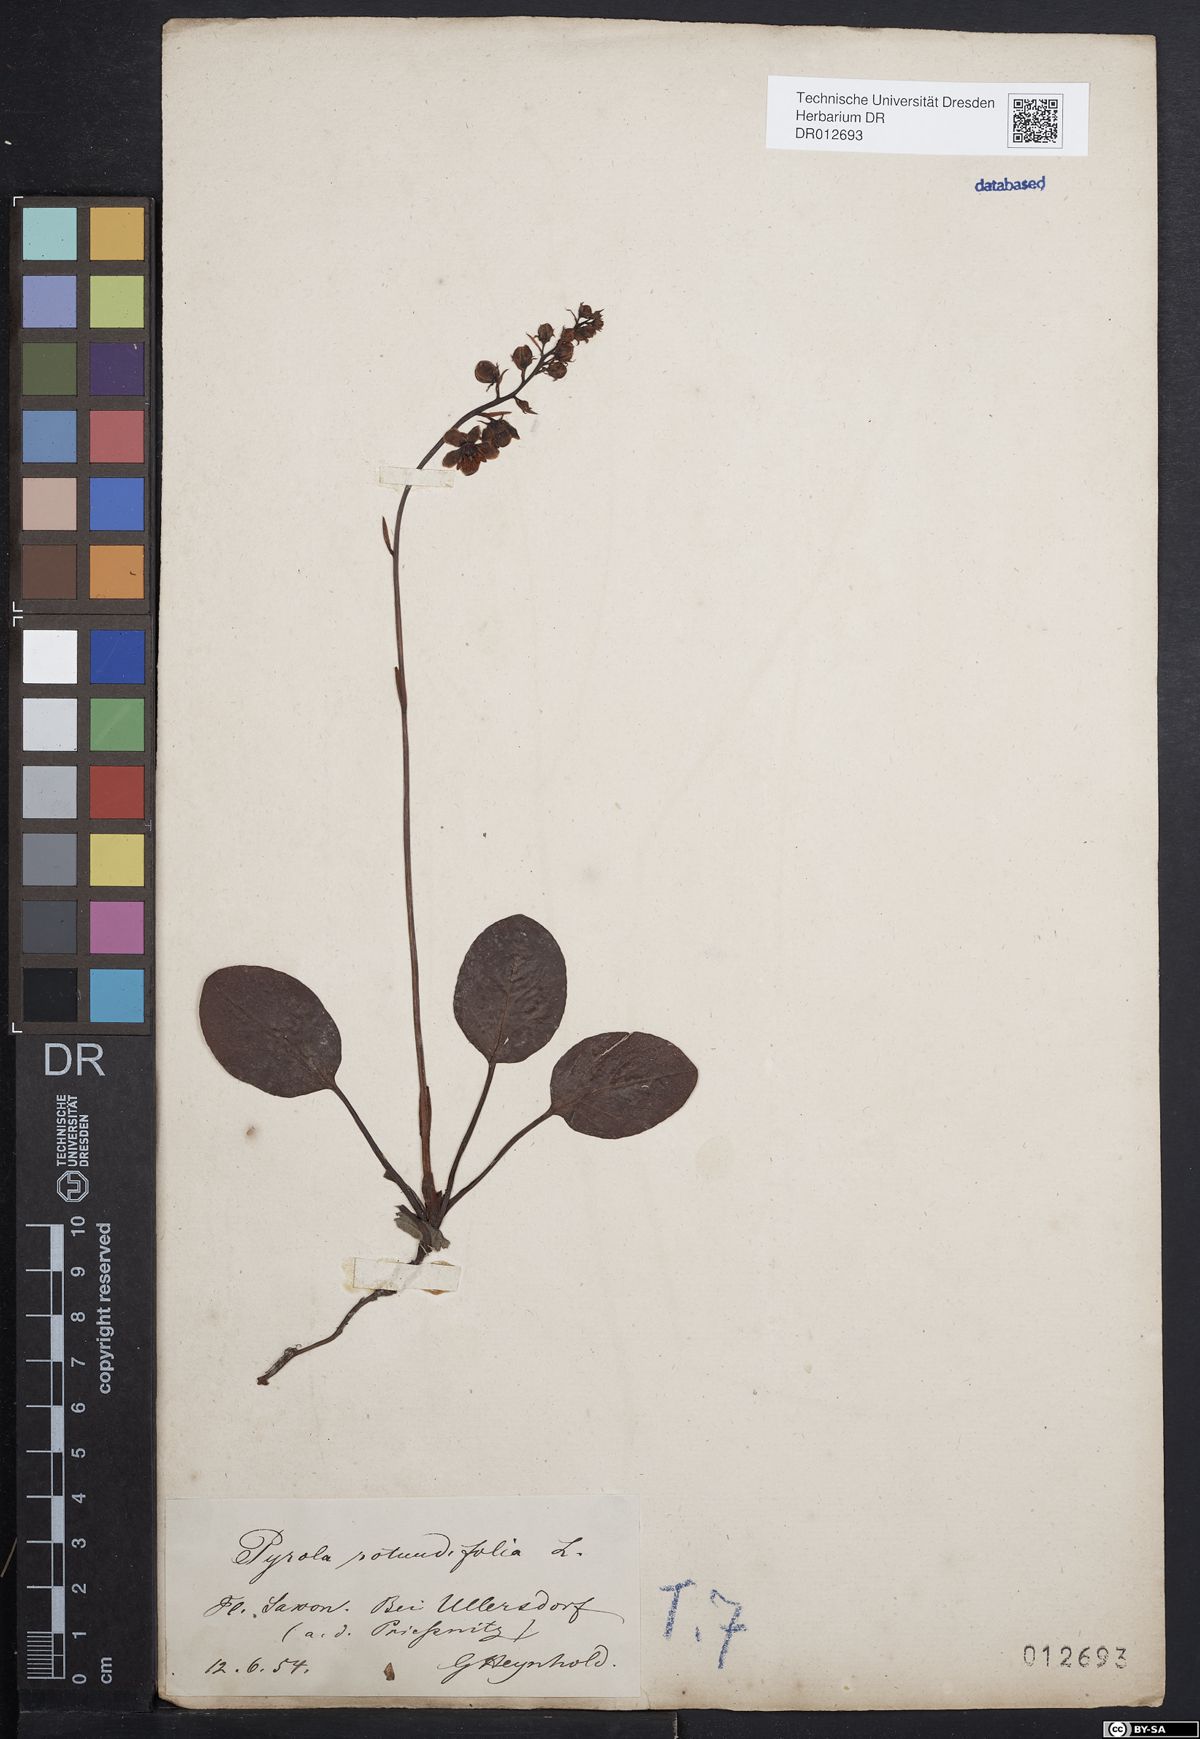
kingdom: Plantae
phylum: Tracheophyta
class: Magnoliopsida
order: Ericales
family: Ericaceae
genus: Pyrola
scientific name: Pyrola rotundifolia
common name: Round-leaved wintergreen
